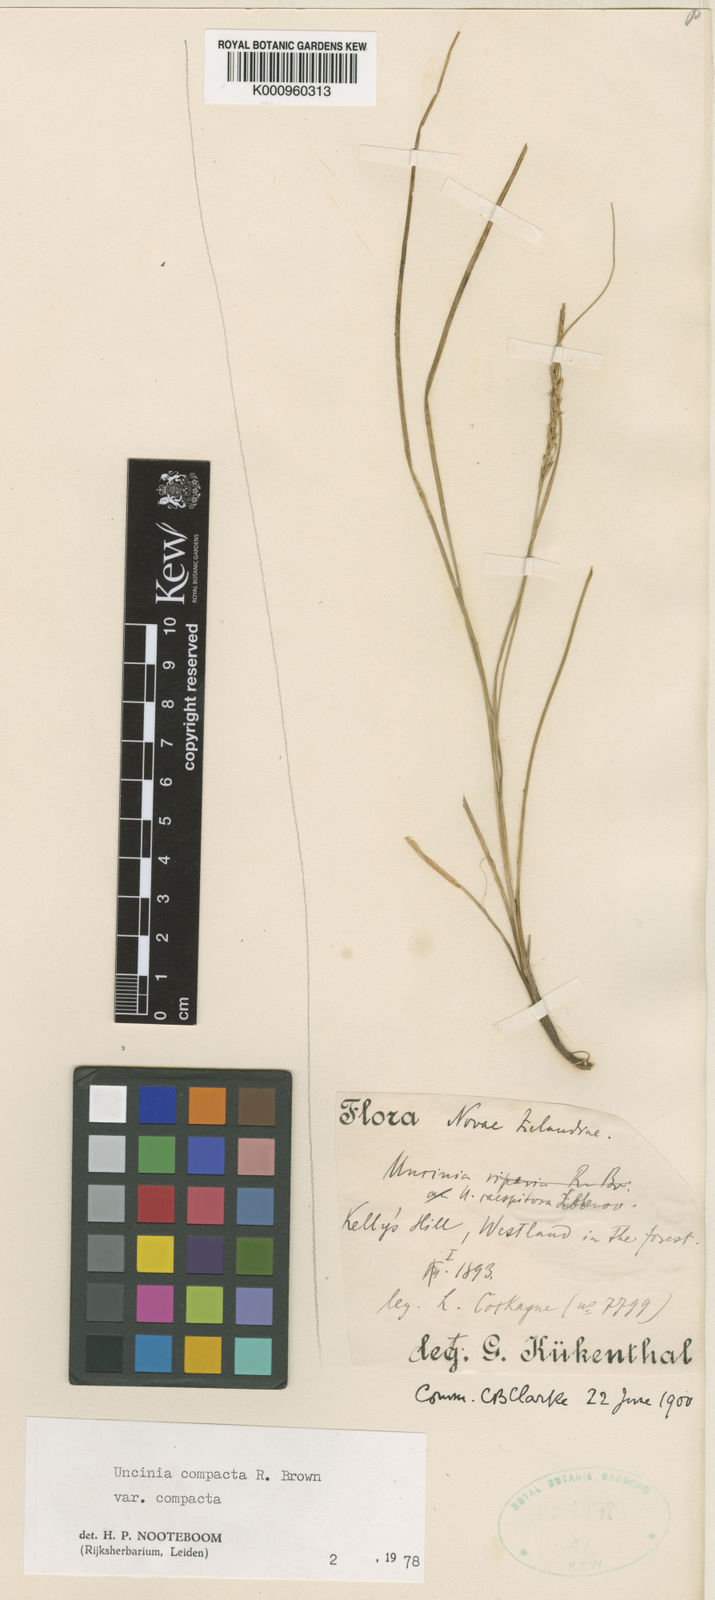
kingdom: Plantae
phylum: Tracheophyta
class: Liliopsida
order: Poales
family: Cyperaceae
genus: Carex
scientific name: Carex astricta
